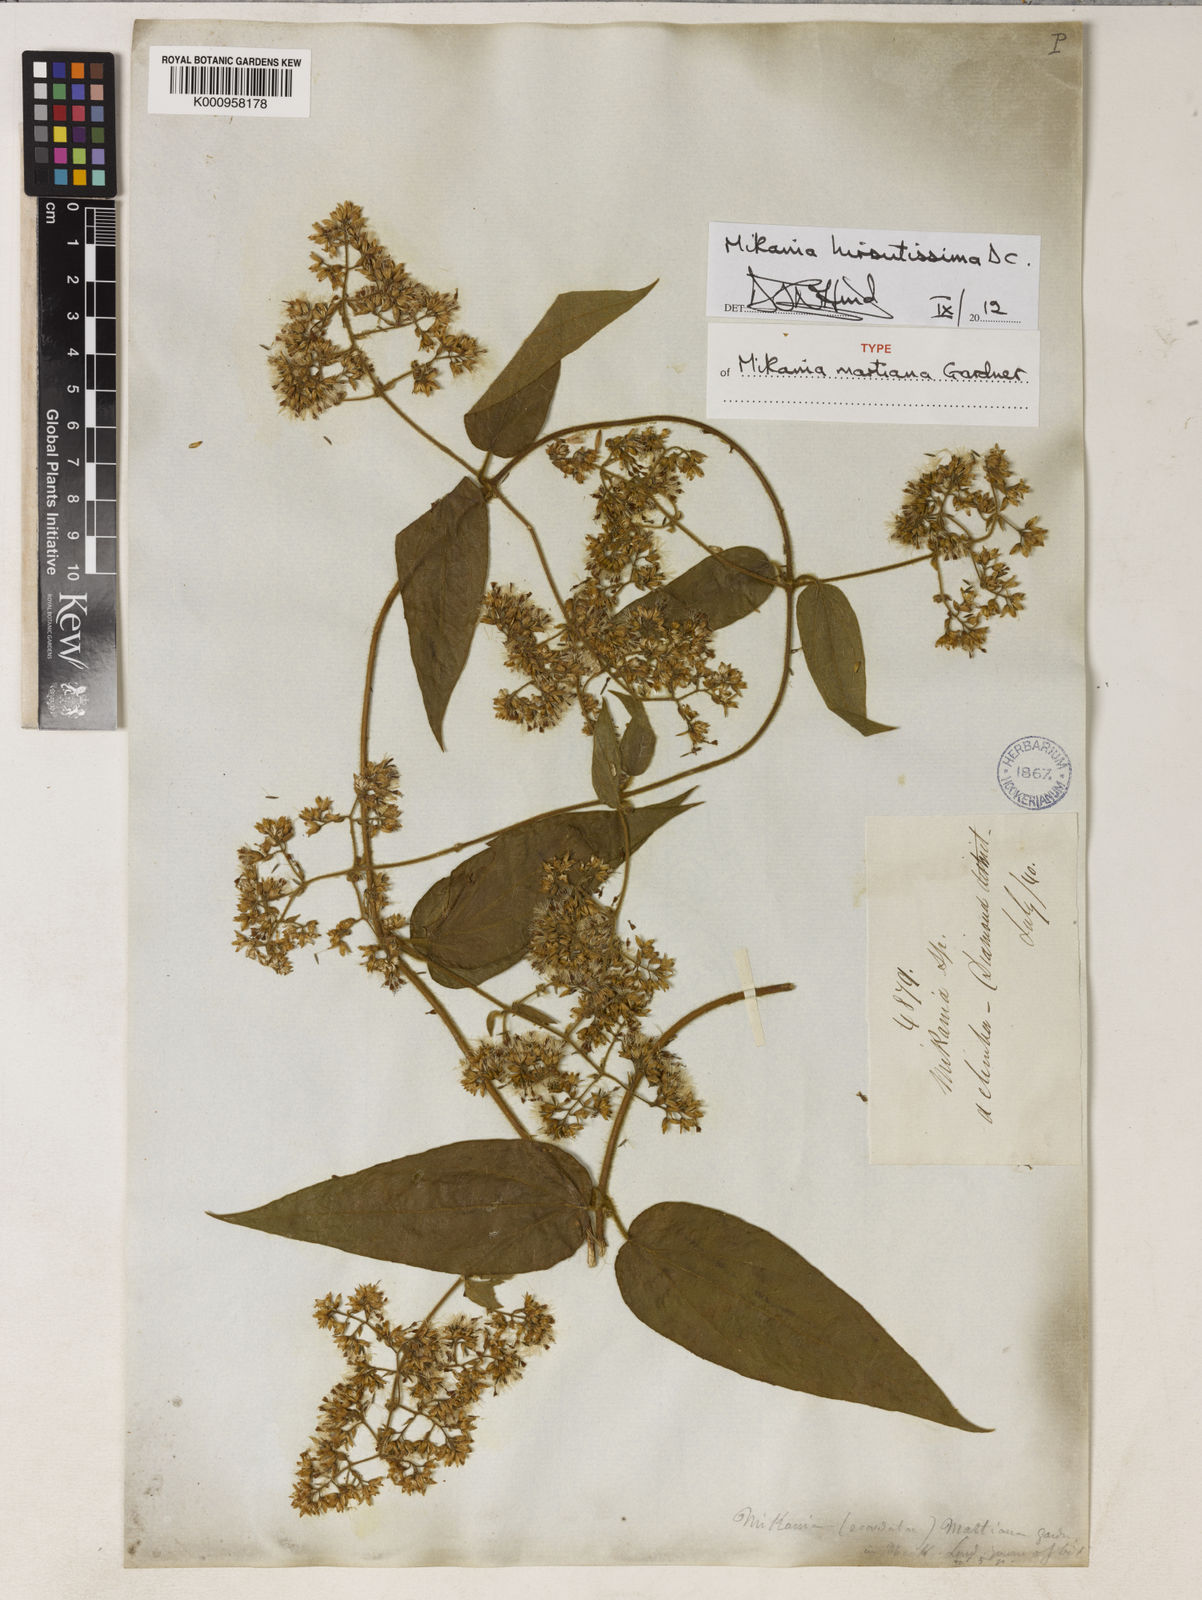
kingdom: Plantae
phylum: Tracheophyta
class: Magnoliopsida
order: Asterales
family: Asteraceae
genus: Mikania
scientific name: Mikania banisteriae
